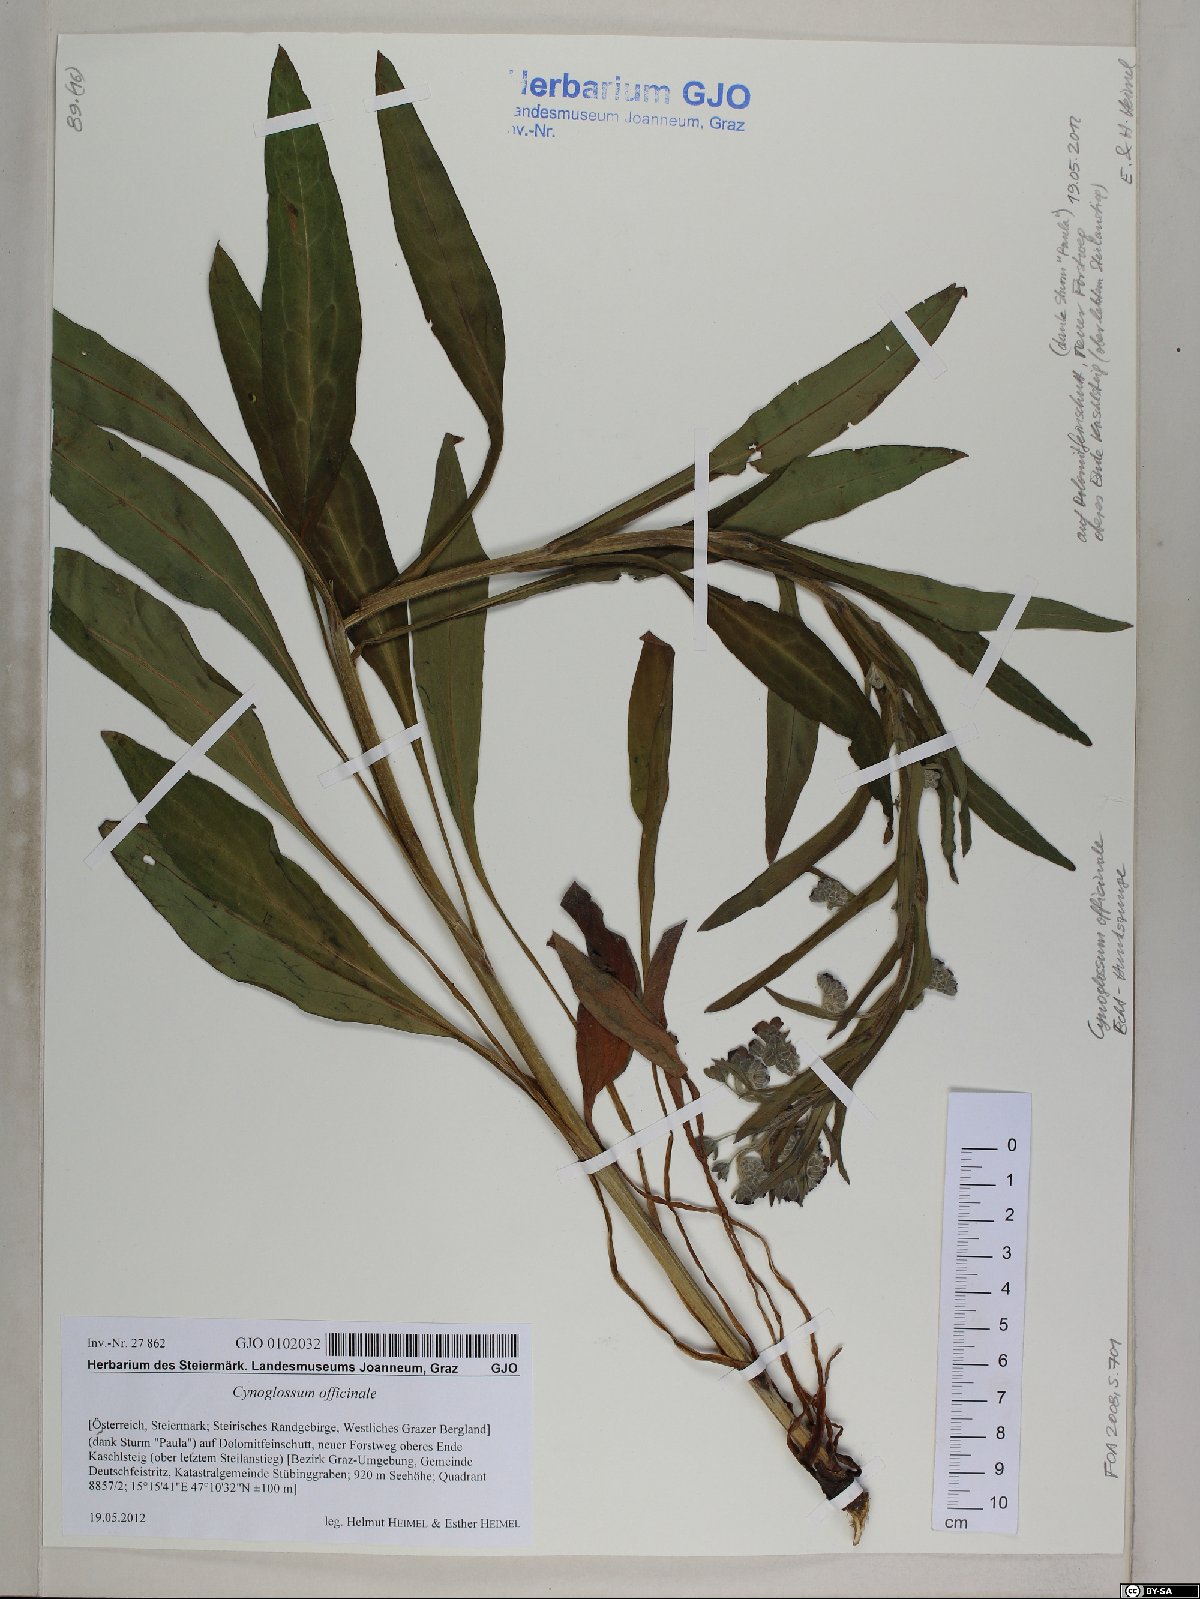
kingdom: Plantae
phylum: Tracheophyta
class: Magnoliopsida
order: Boraginales
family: Boraginaceae
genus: Cynoglossum
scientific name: Cynoglossum officinale
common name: Hound's-tongue
